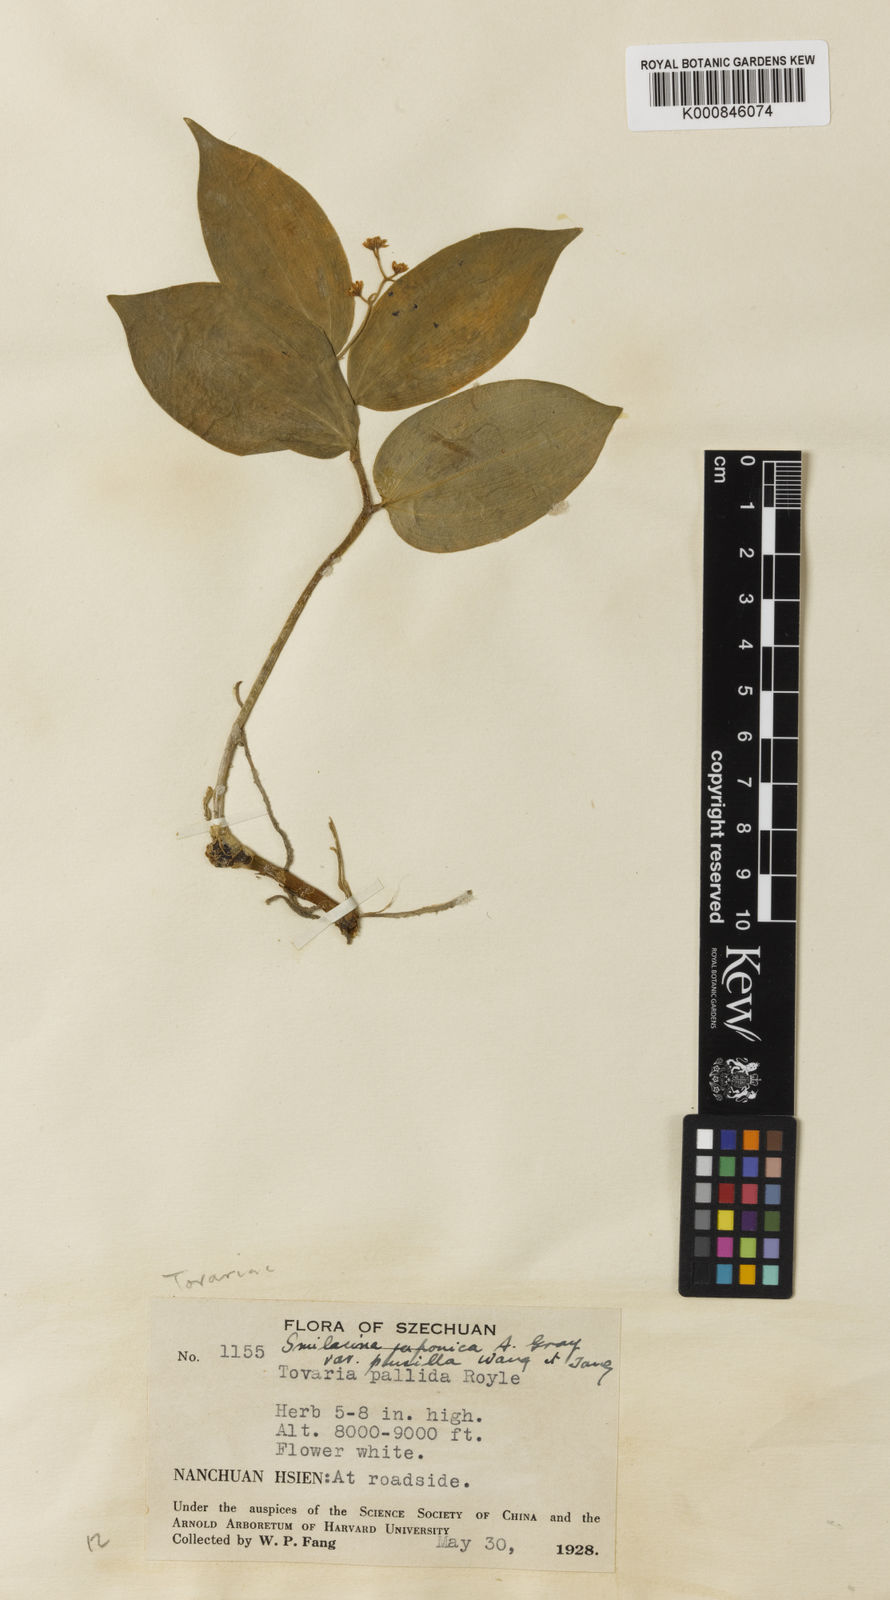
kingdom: Plantae
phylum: Tracheophyta
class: Liliopsida
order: Asparagales
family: Asparagaceae
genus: Maianthemum
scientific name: Maianthemum japonicum
